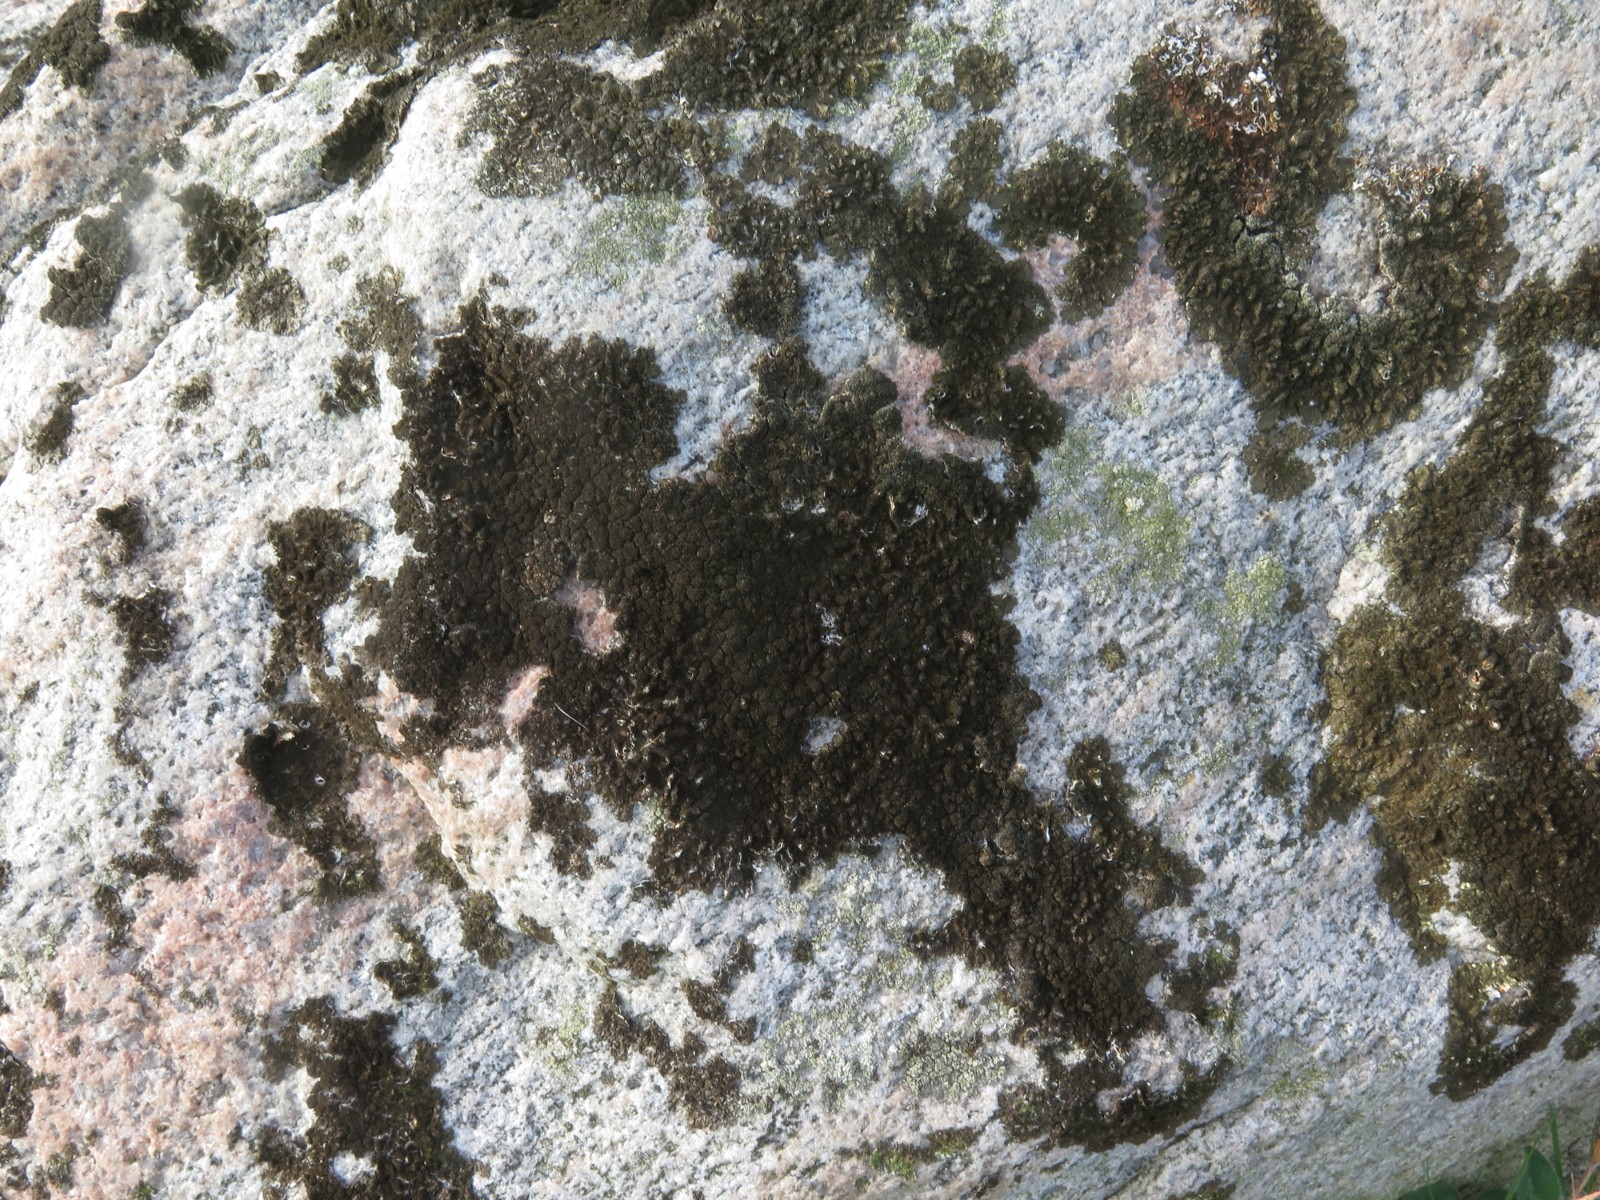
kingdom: Fungi
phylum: Ascomycota
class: Lecanoromycetes
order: Lecanorales
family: Parmeliaceae
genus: Xanthoparmelia
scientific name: Xanthoparmelia verruculifera
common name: småknoppet skållav
